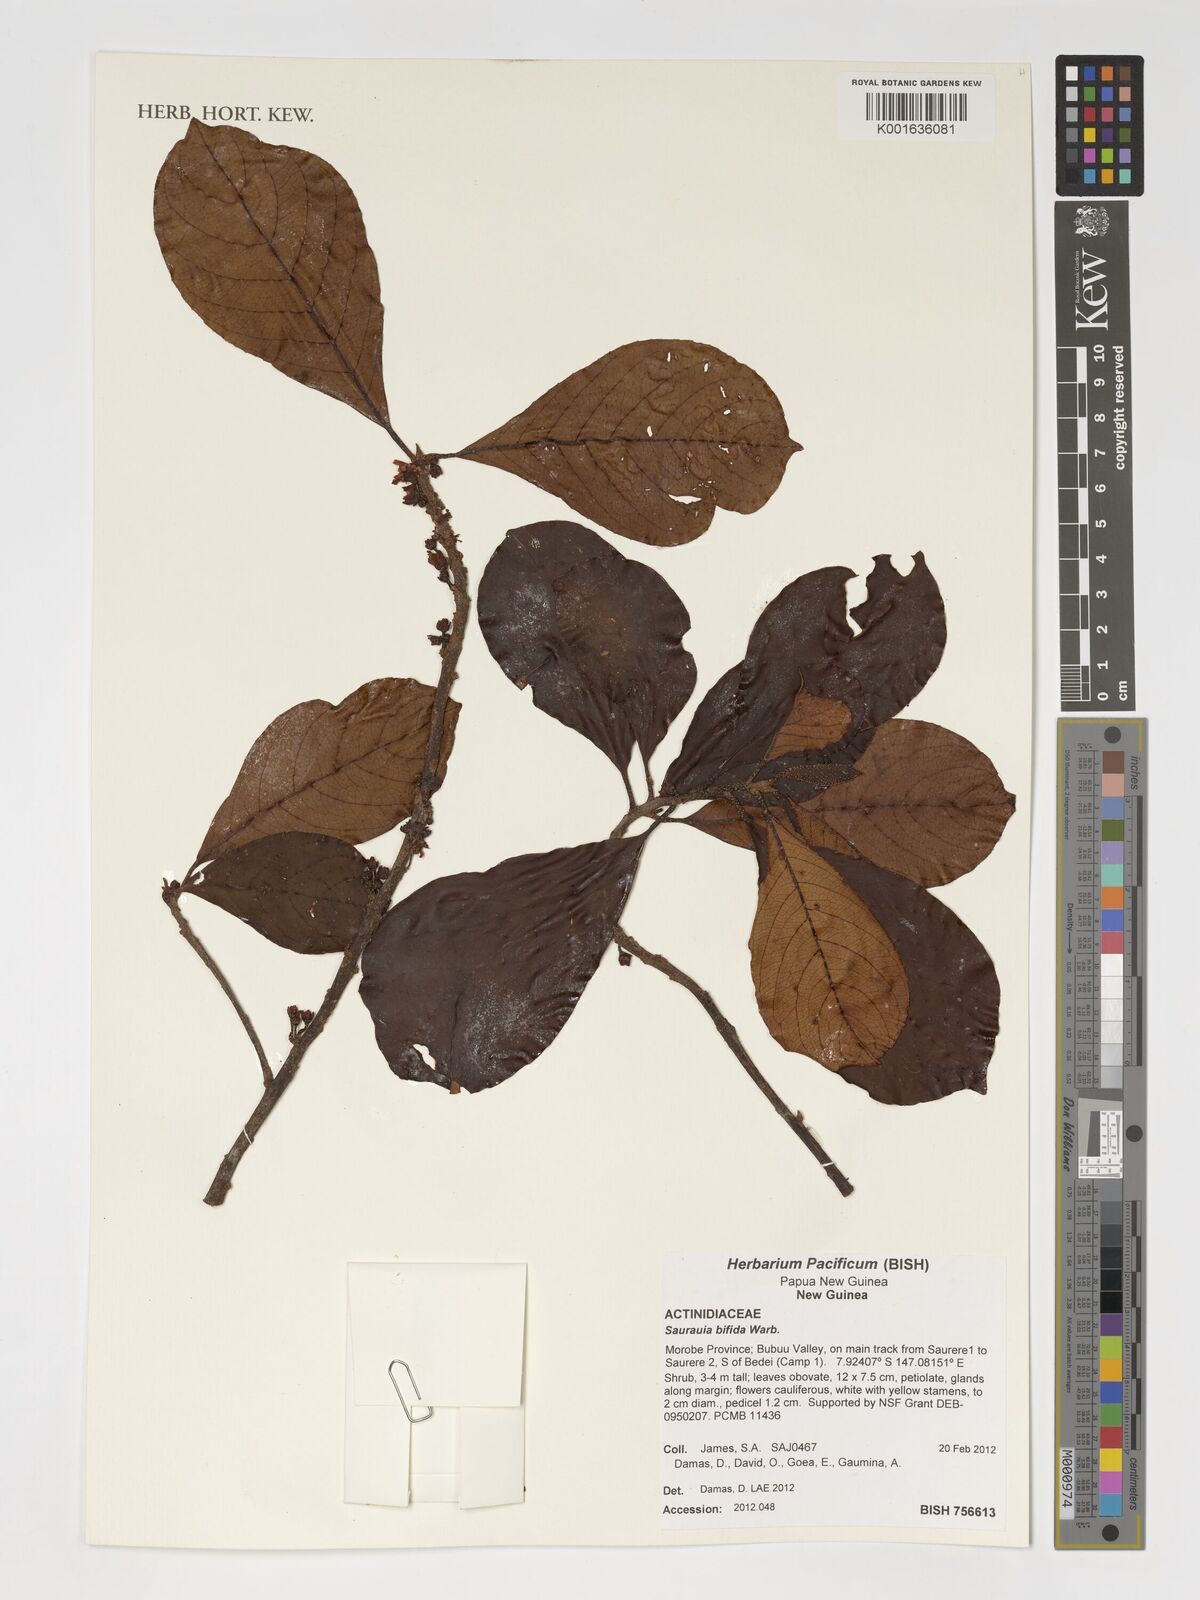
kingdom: Plantae
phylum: Tracheophyta
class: Magnoliopsida
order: Ericales
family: Actinidiaceae
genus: Saurauia
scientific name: Saurauia bifida
